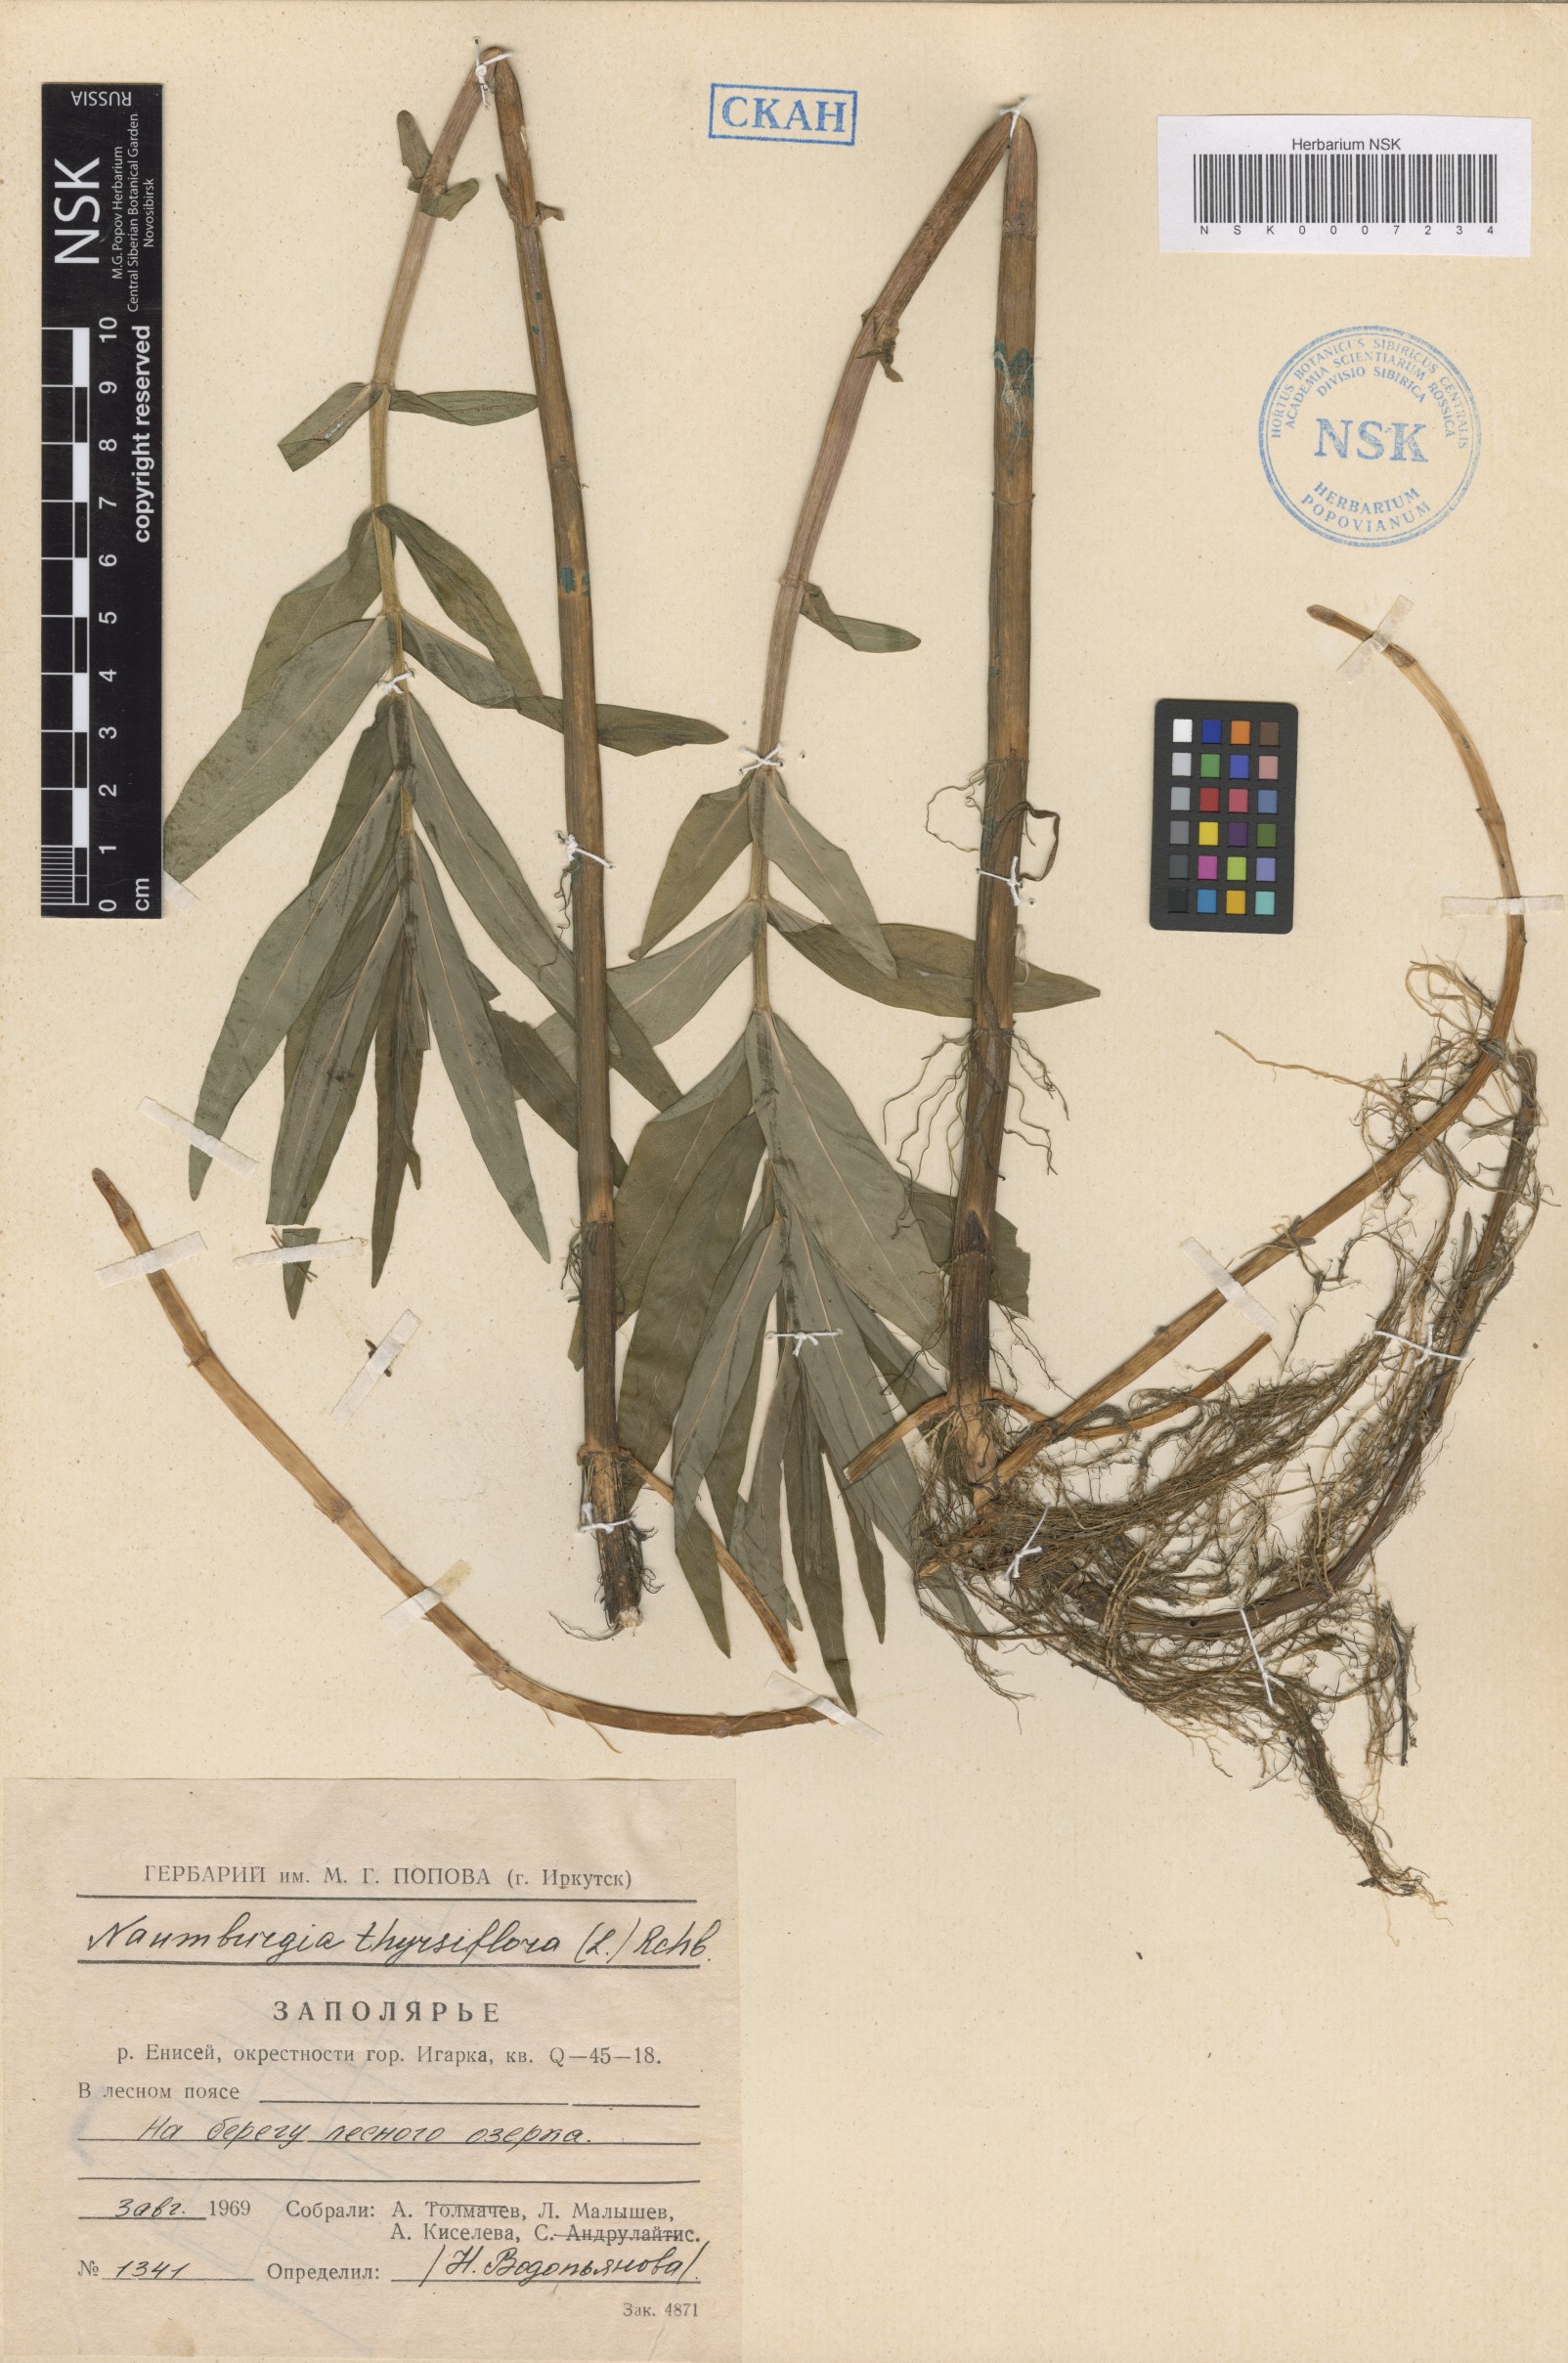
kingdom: Plantae
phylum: Tracheophyta
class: Magnoliopsida
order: Ericales
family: Primulaceae
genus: Lysimachia
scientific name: Lysimachia thyrsiflora
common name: Tufted loosestrife
